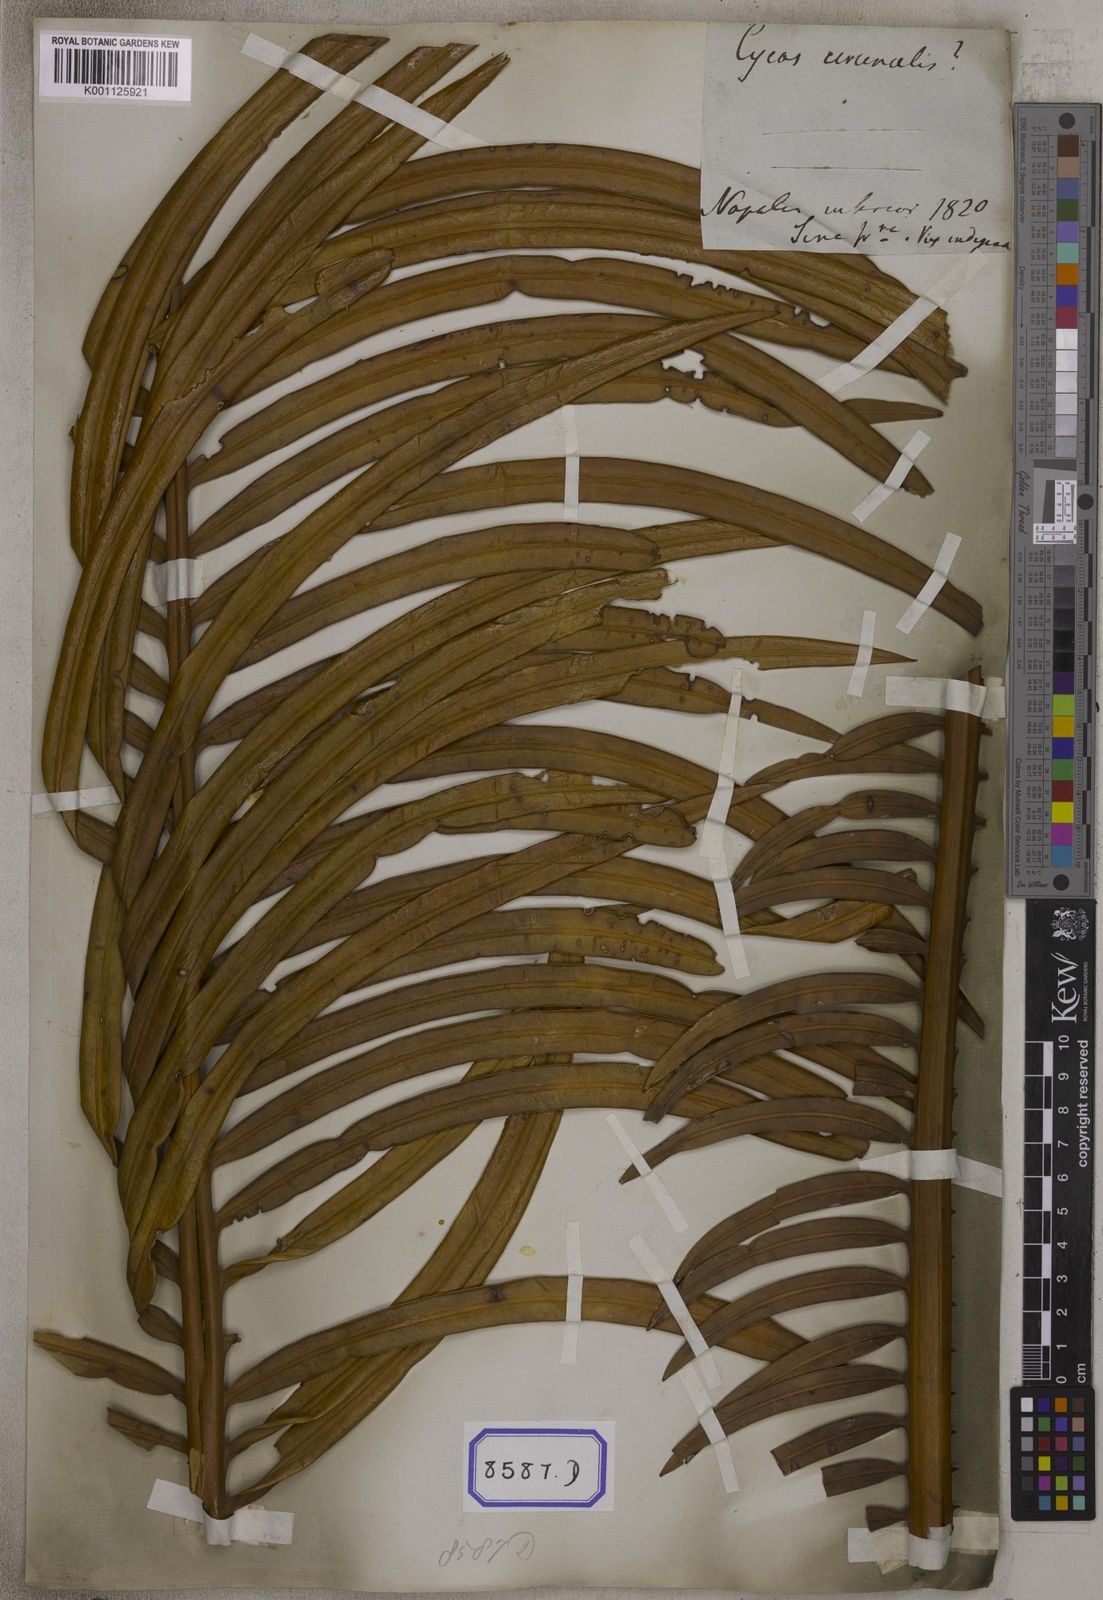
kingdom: Plantae
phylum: Tracheophyta
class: Cycadopsida
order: Cycadales
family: Cycadaceae
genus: Cycas
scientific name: Cycas circinalis
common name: Queen sago
